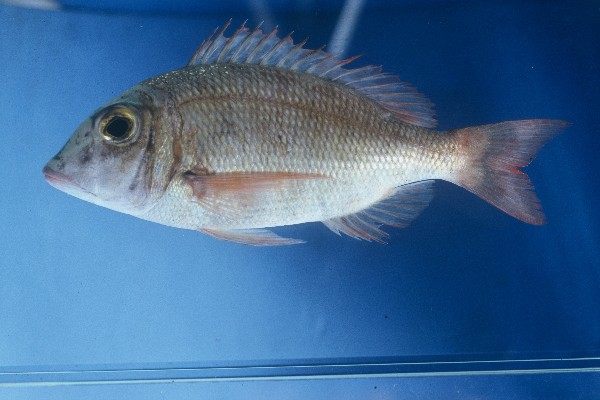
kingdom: Animalia
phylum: Chordata
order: Perciformes
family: Lethrinidae
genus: Lethrinus
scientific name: Lethrinus
